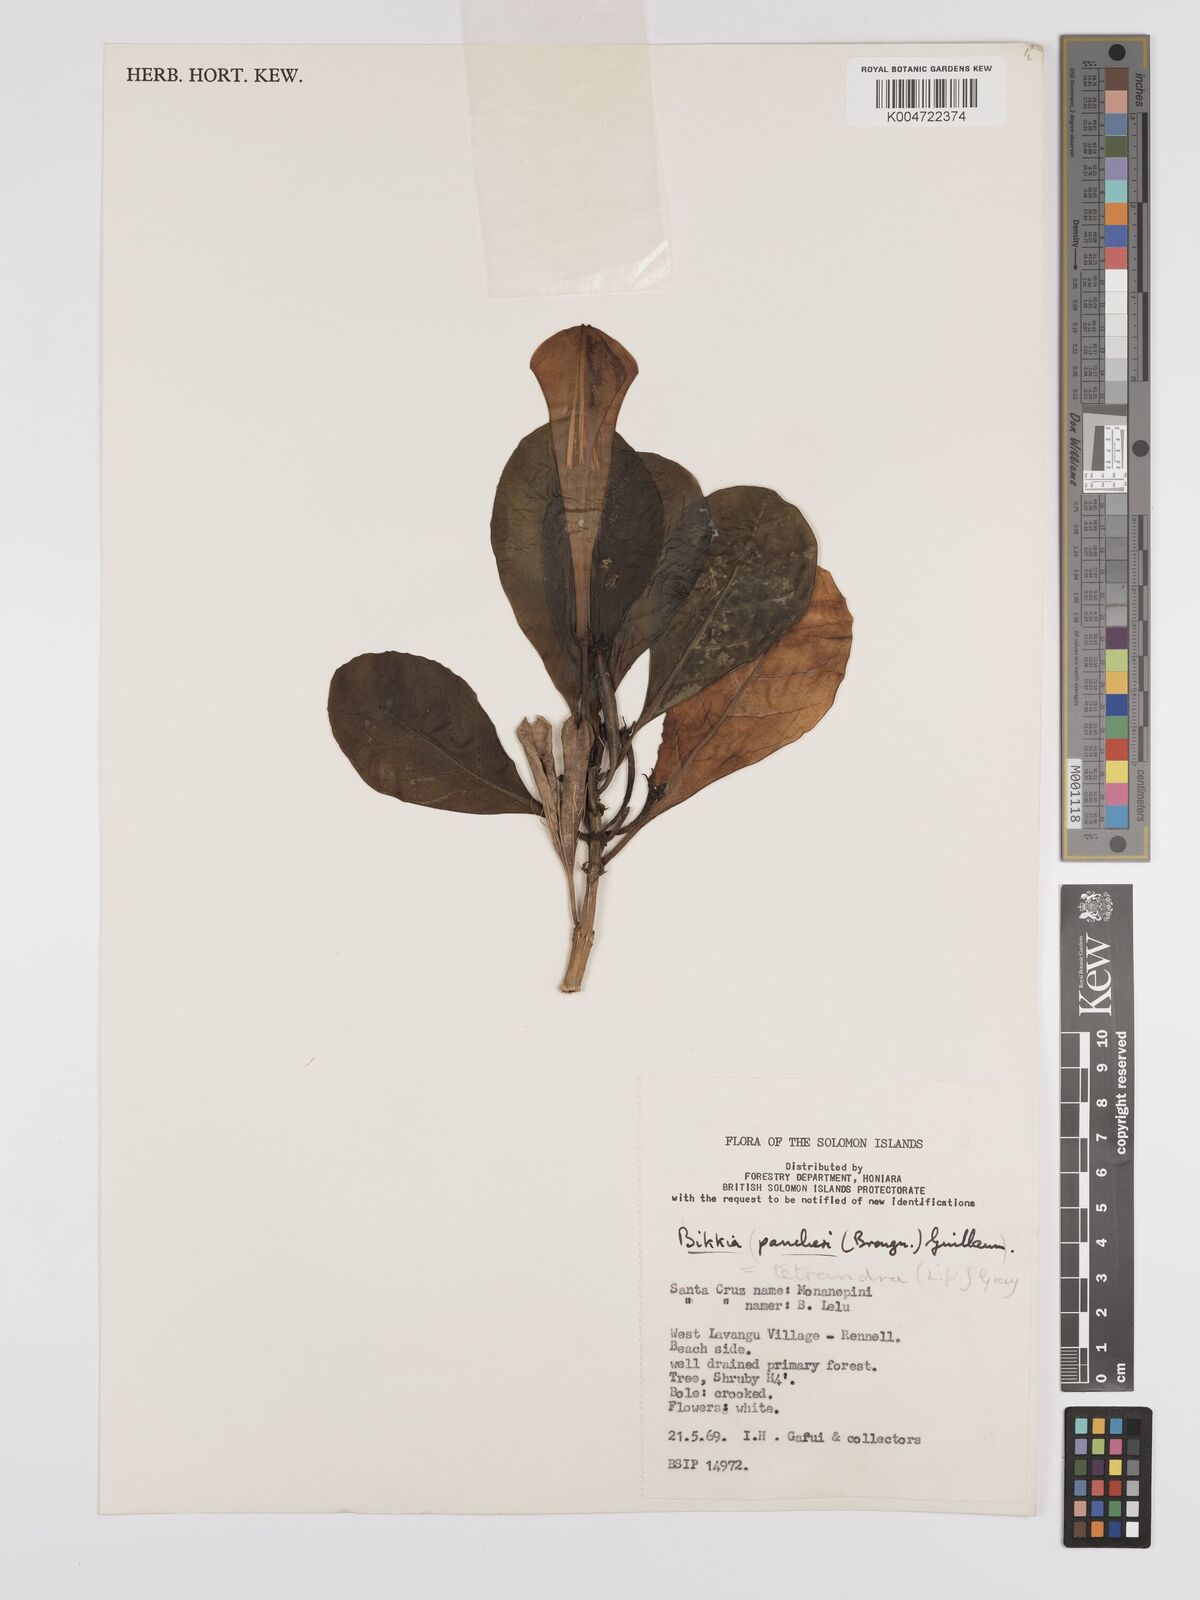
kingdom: Plantae
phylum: Tracheophyta
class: Magnoliopsida
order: Gentianales
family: Rubiaceae
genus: Bikkia
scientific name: Bikkia
